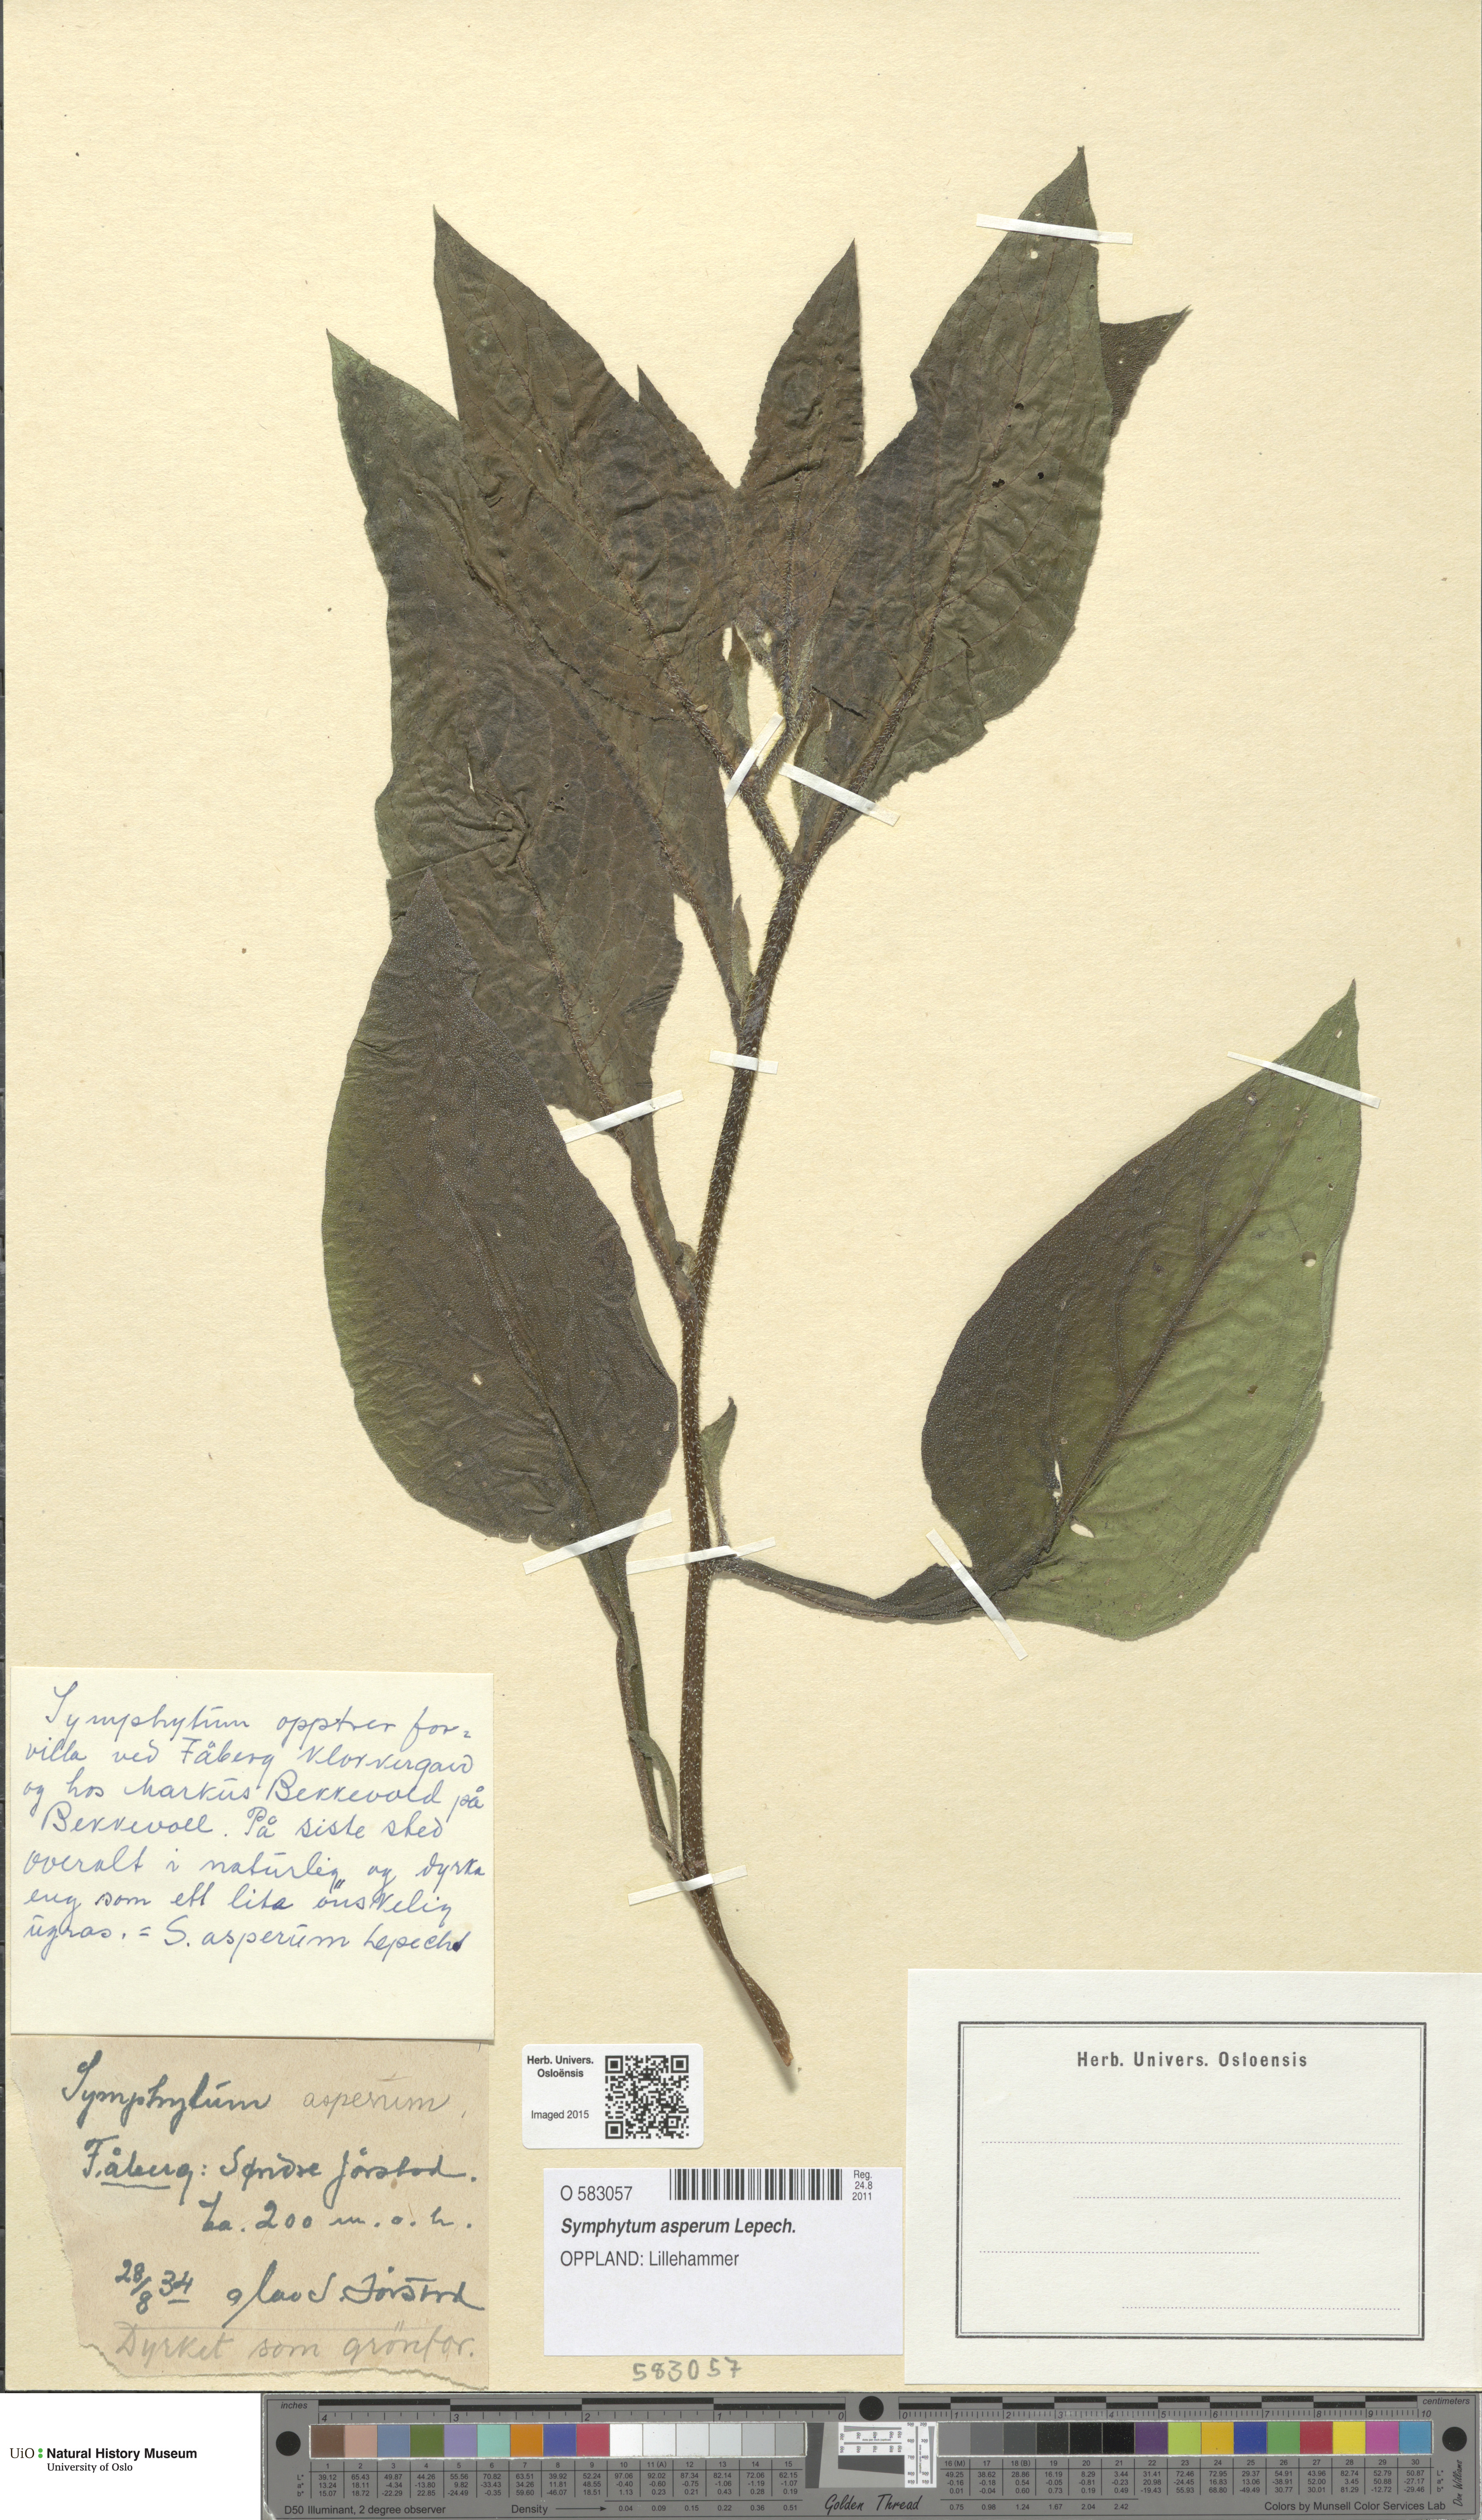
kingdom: Plantae
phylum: Tracheophyta
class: Magnoliopsida
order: Boraginales
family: Boraginaceae
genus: Symphytum
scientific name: Symphytum asperum
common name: Prickly comfrey
